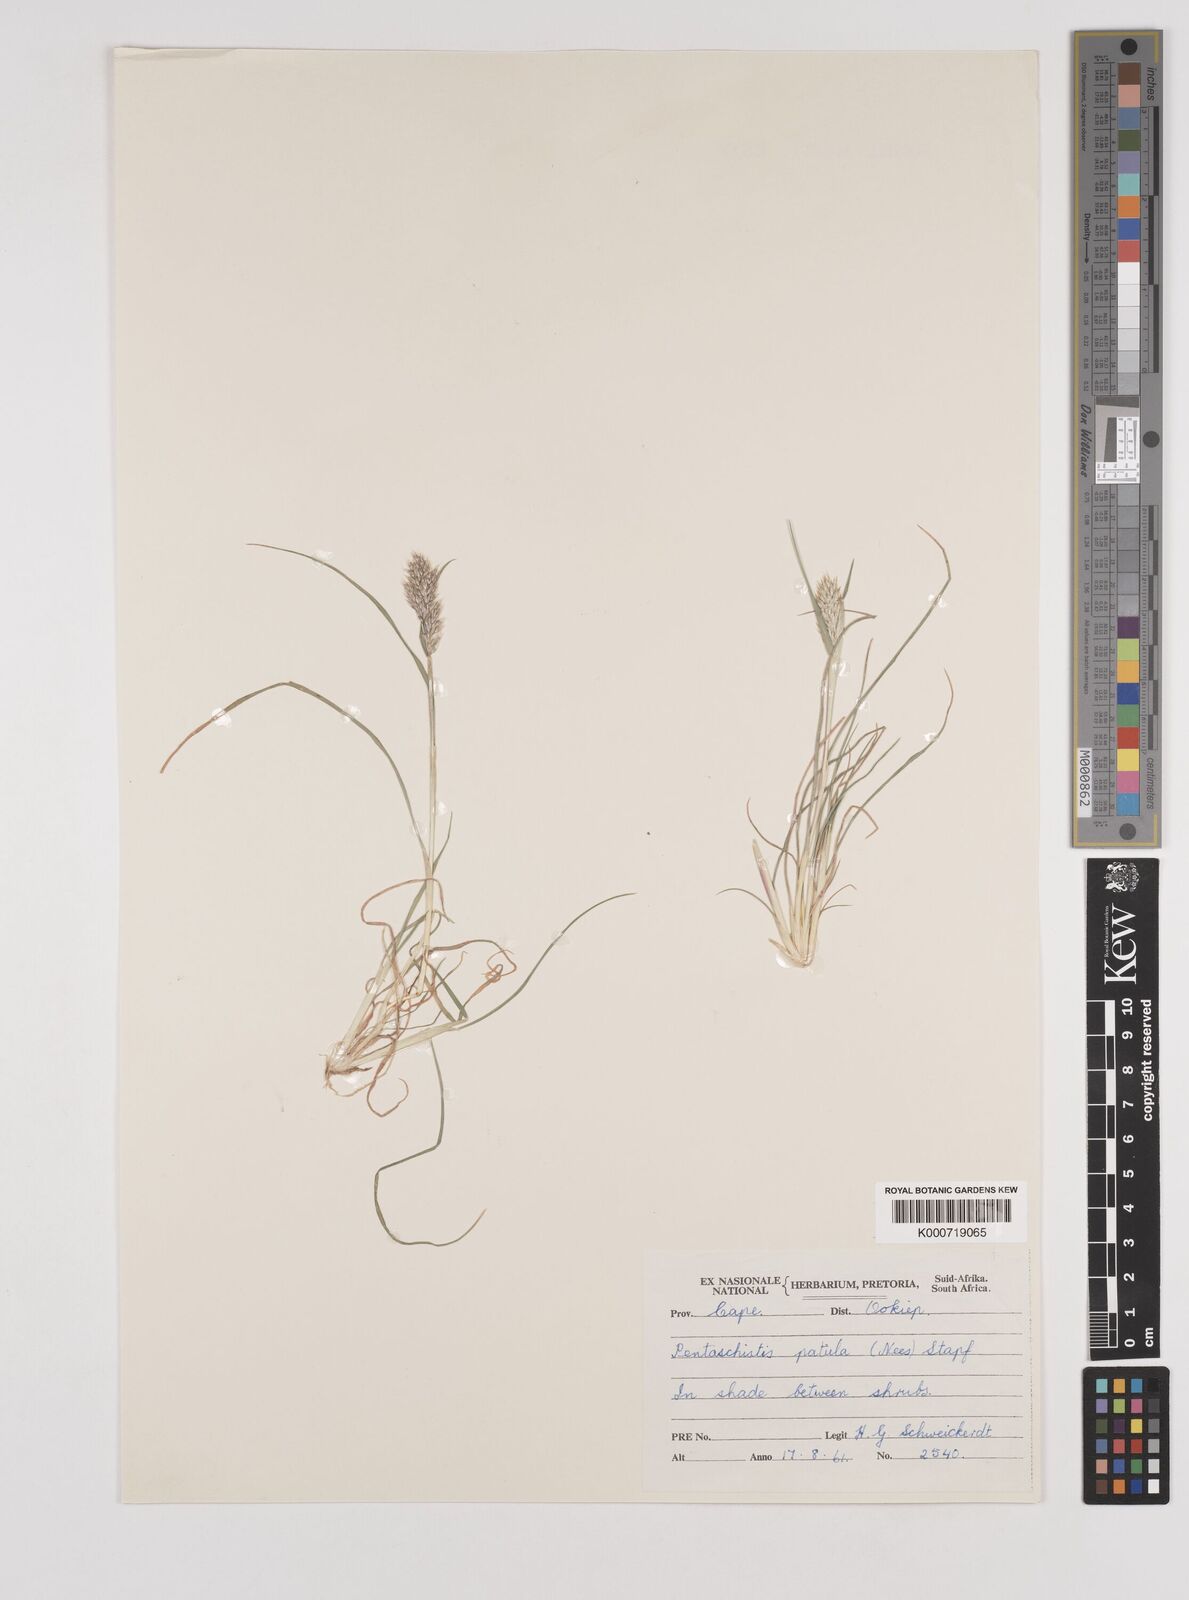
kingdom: Plantae
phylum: Tracheophyta
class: Liliopsida
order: Poales
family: Poaceae
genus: Pentameris
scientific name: Pentameris patula
